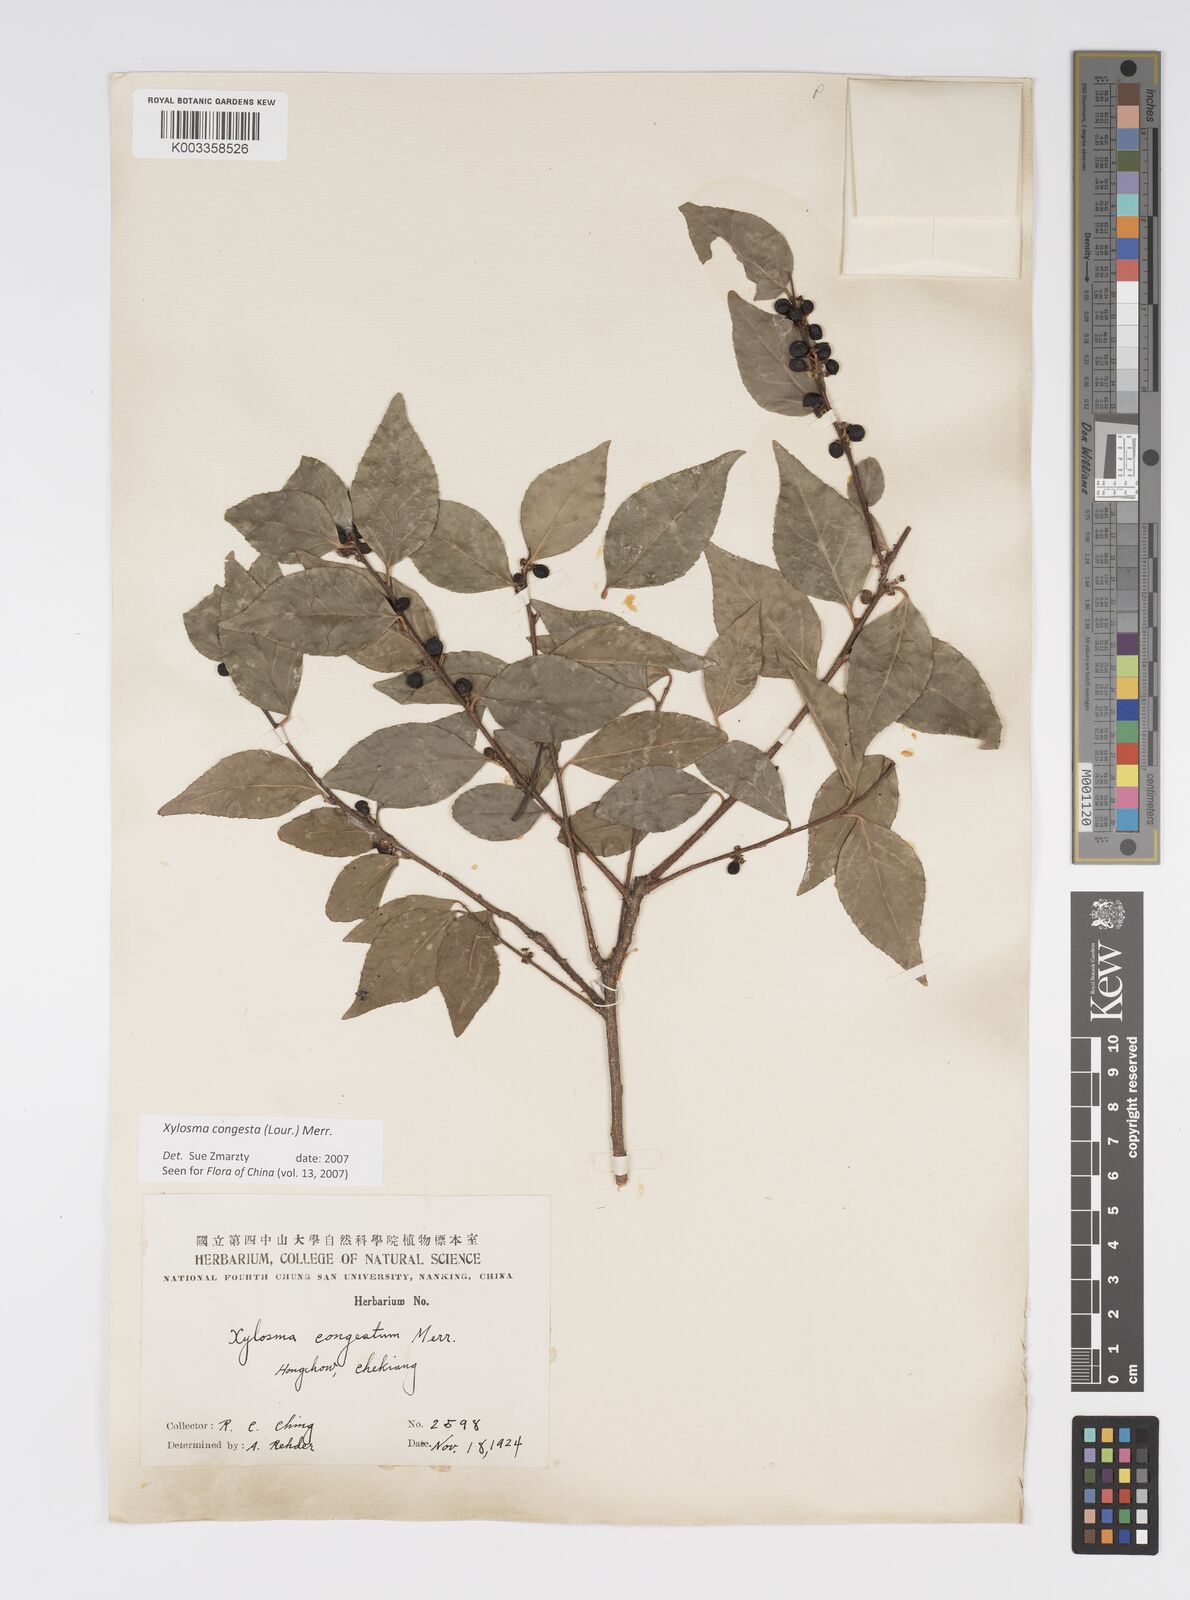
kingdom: Plantae
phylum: Tracheophyta
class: Magnoliopsida
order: Malpighiales
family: Salicaceae
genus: Xylosma
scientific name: Xylosma racemosum
